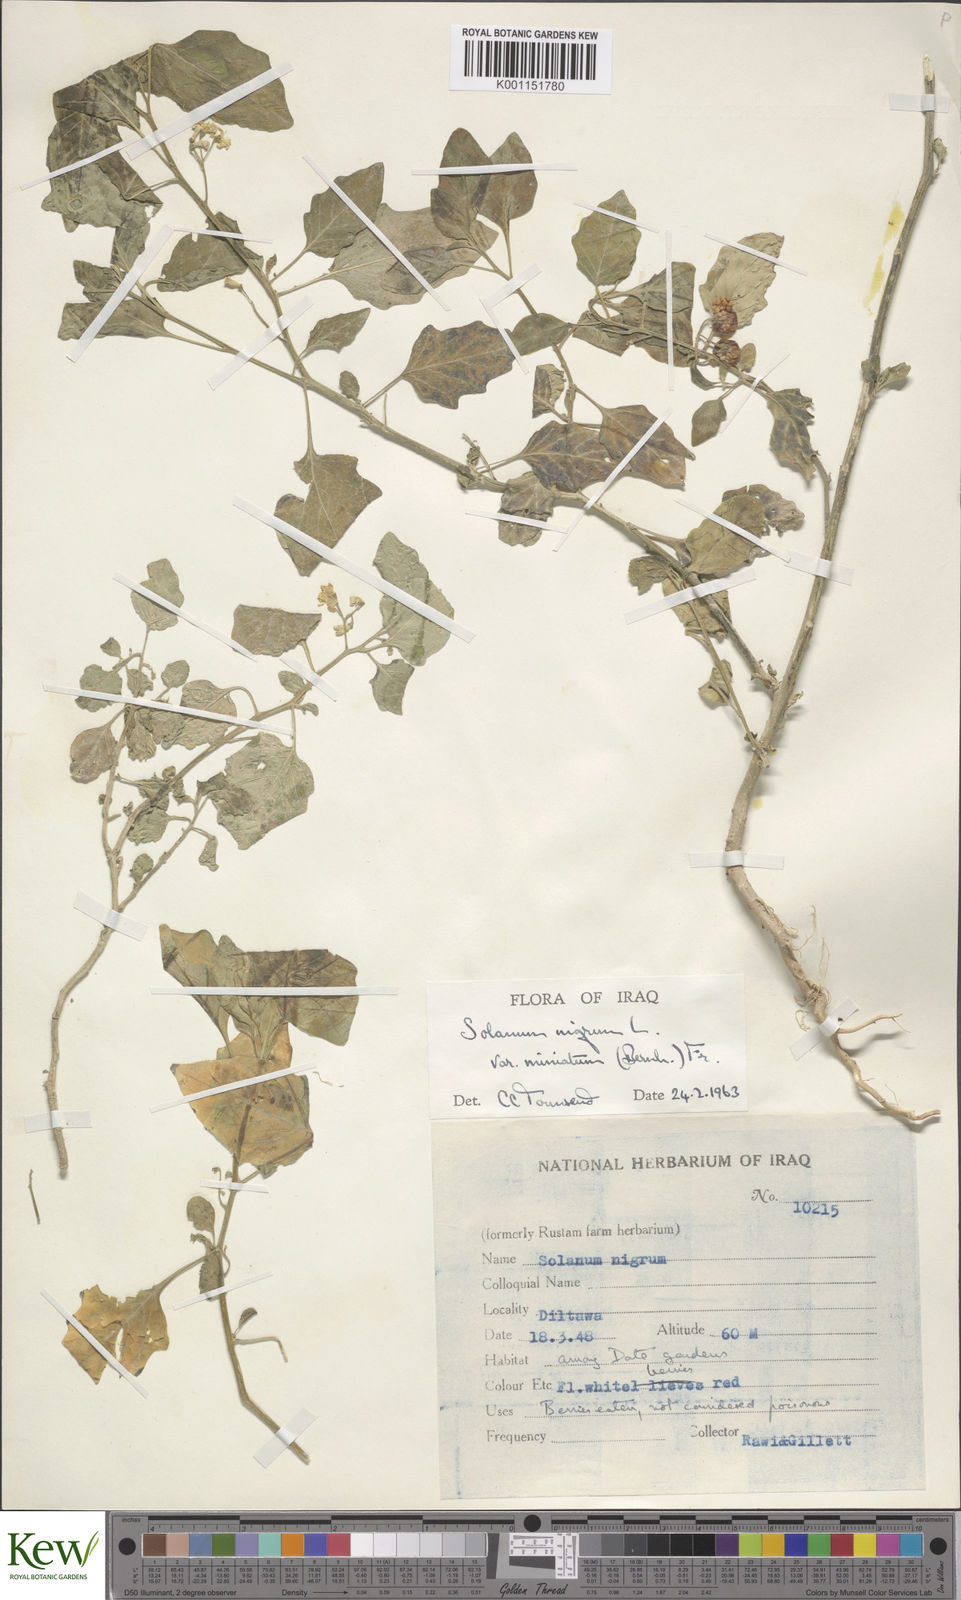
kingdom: Plantae
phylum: Tracheophyta
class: Magnoliopsida
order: Solanales
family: Solanaceae
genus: Solanum
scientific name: Solanum nigrum
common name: Black nightshade
